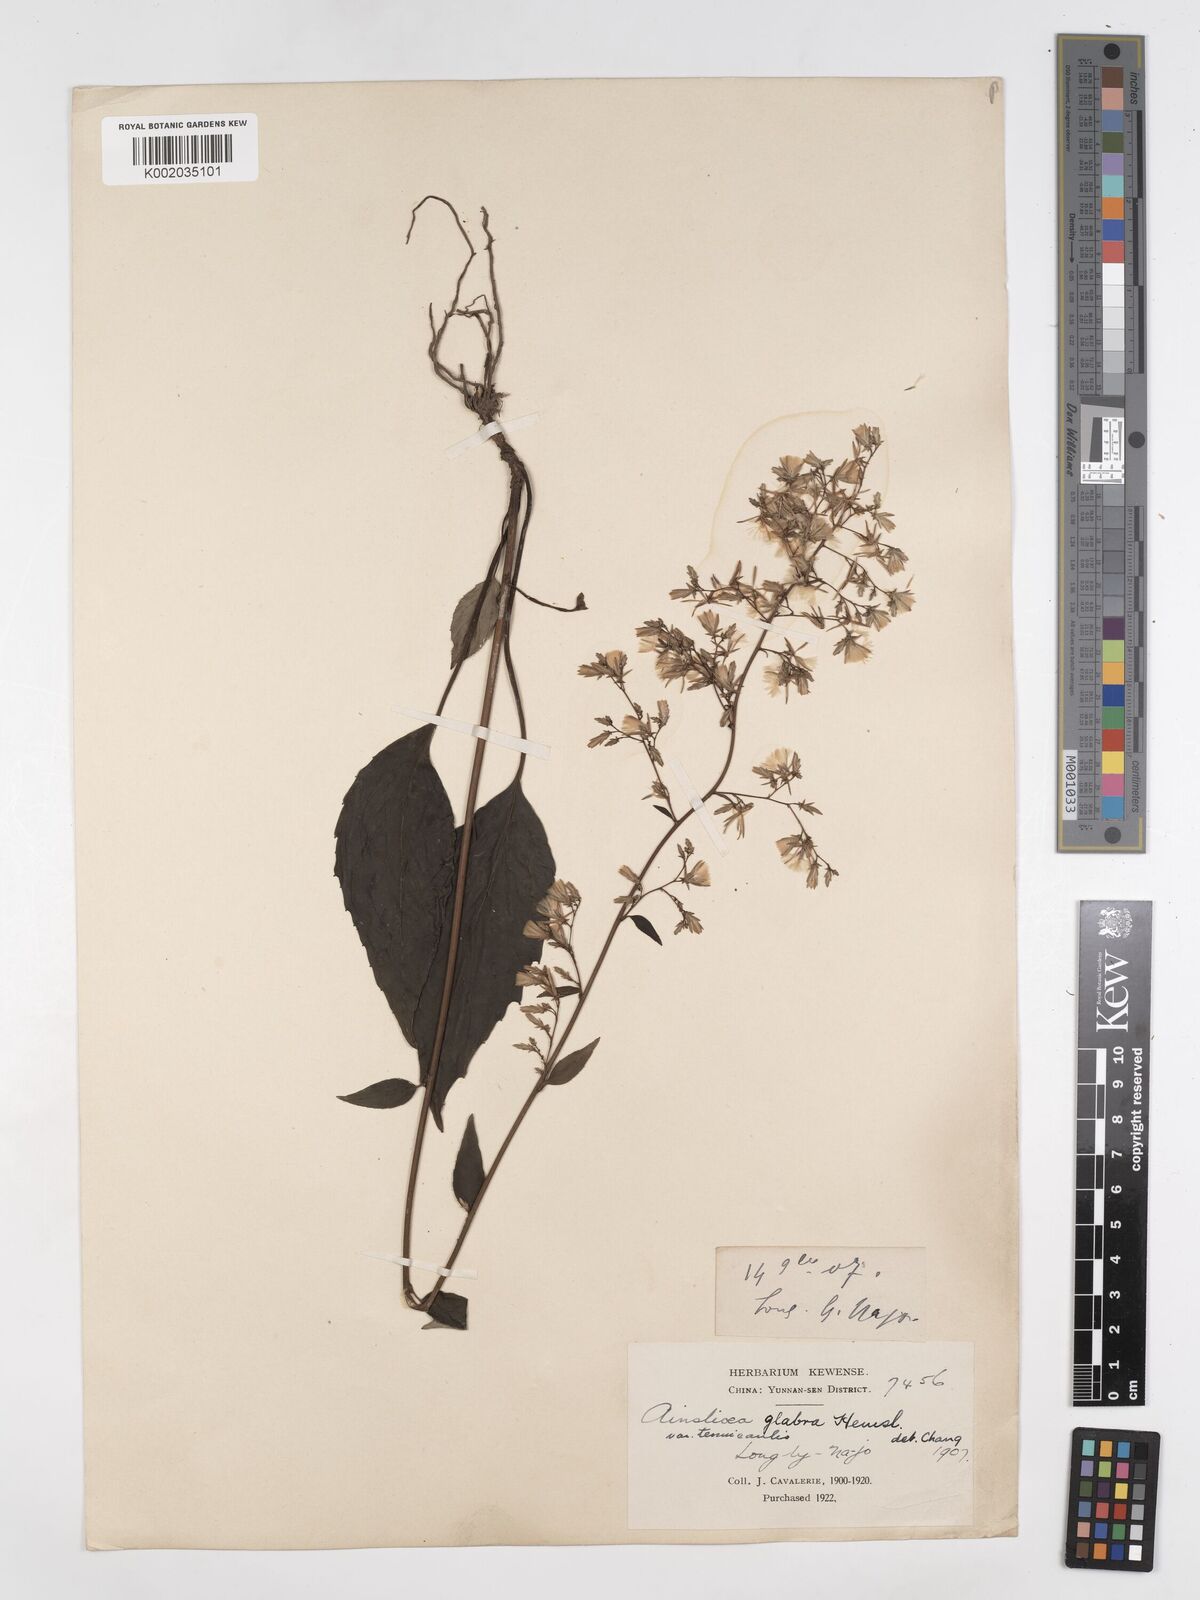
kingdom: Plantae
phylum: Tracheophyta
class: Magnoliopsida
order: Asterales
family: Asteraceae
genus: Ainsliaea
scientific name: Ainsliaea glabra
